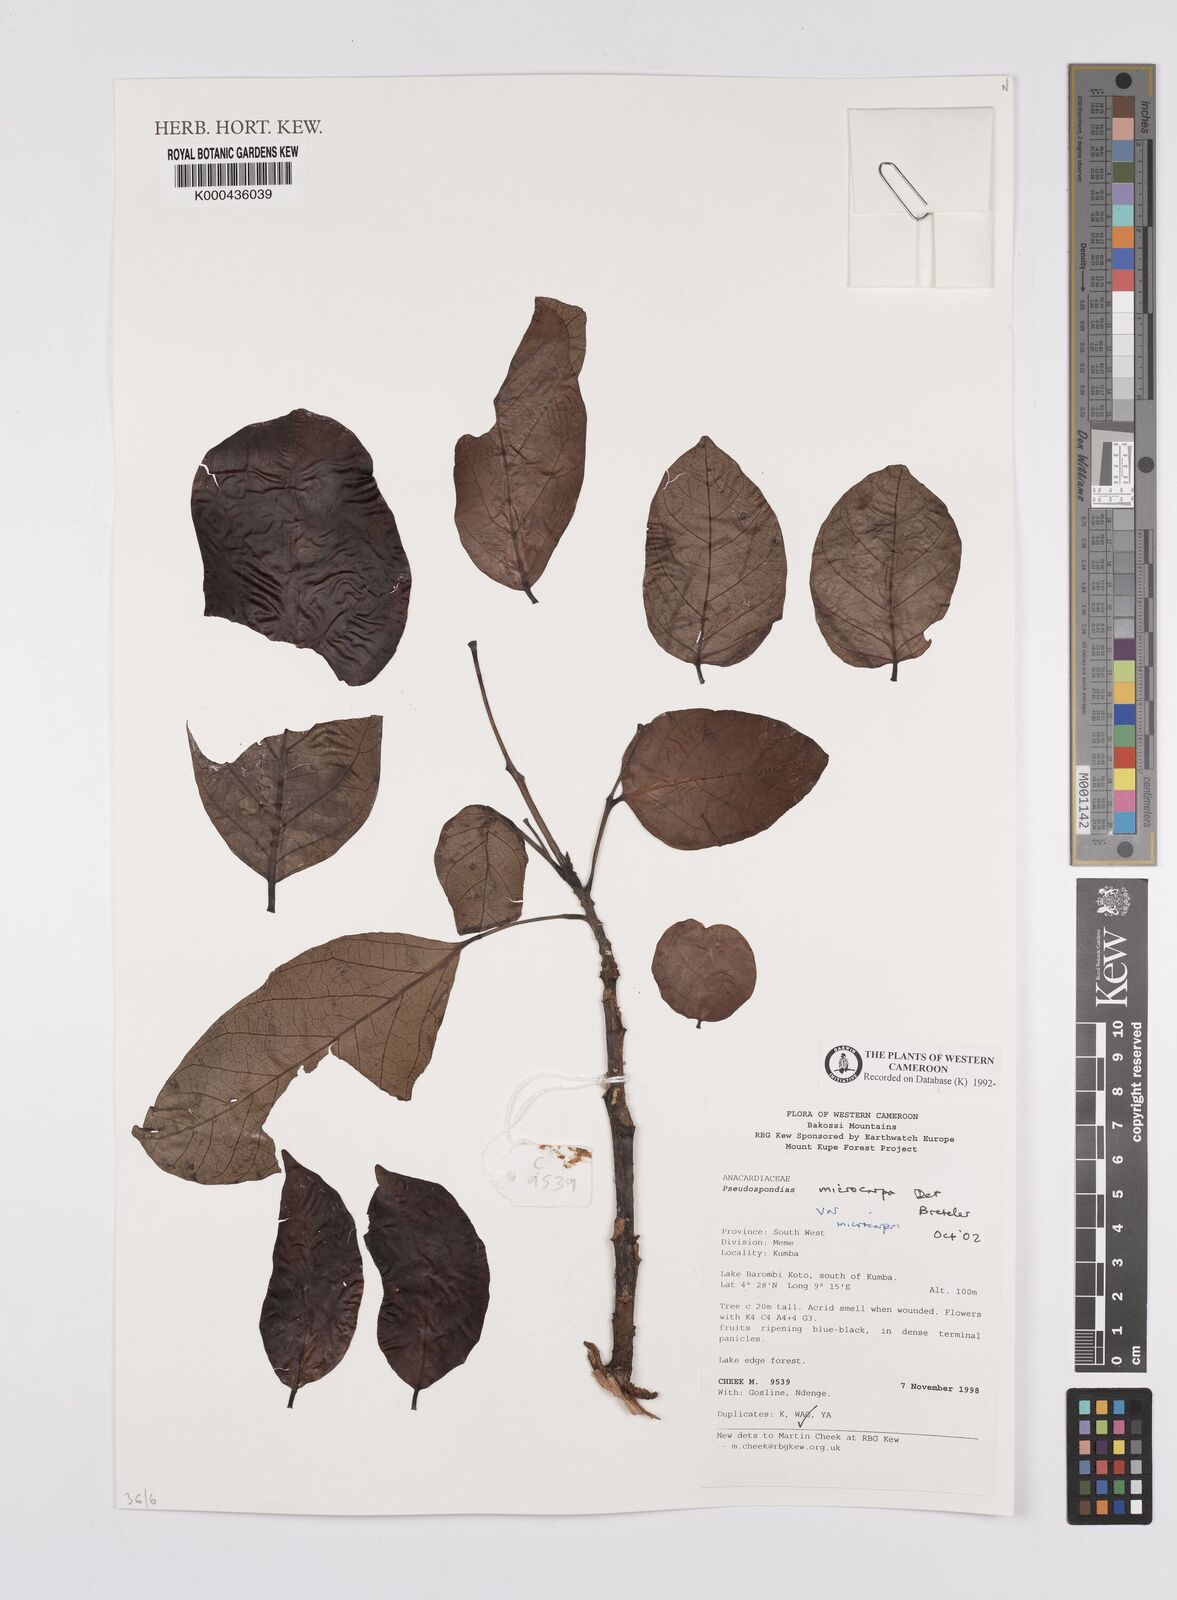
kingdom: Plantae
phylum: Tracheophyta
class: Magnoliopsida
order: Sapindales
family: Anacardiaceae
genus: Pseudospondias
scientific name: Pseudospondias microcarpa
